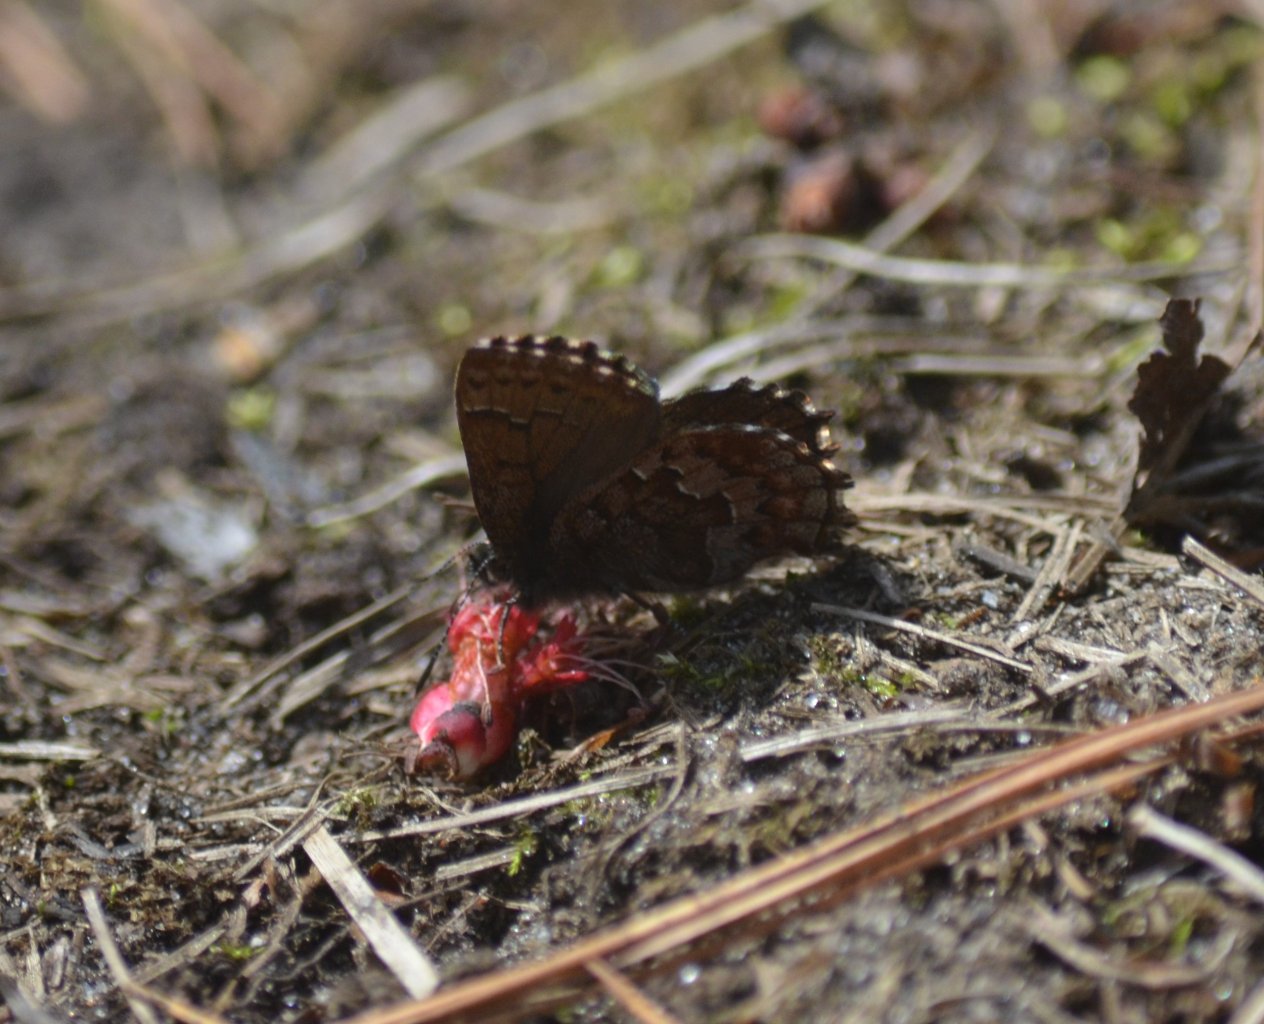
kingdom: Animalia
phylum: Arthropoda
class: Insecta
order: Lepidoptera
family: Lycaenidae
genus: Incisalia
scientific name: Incisalia niphon
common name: Eastern Pine Elfin
